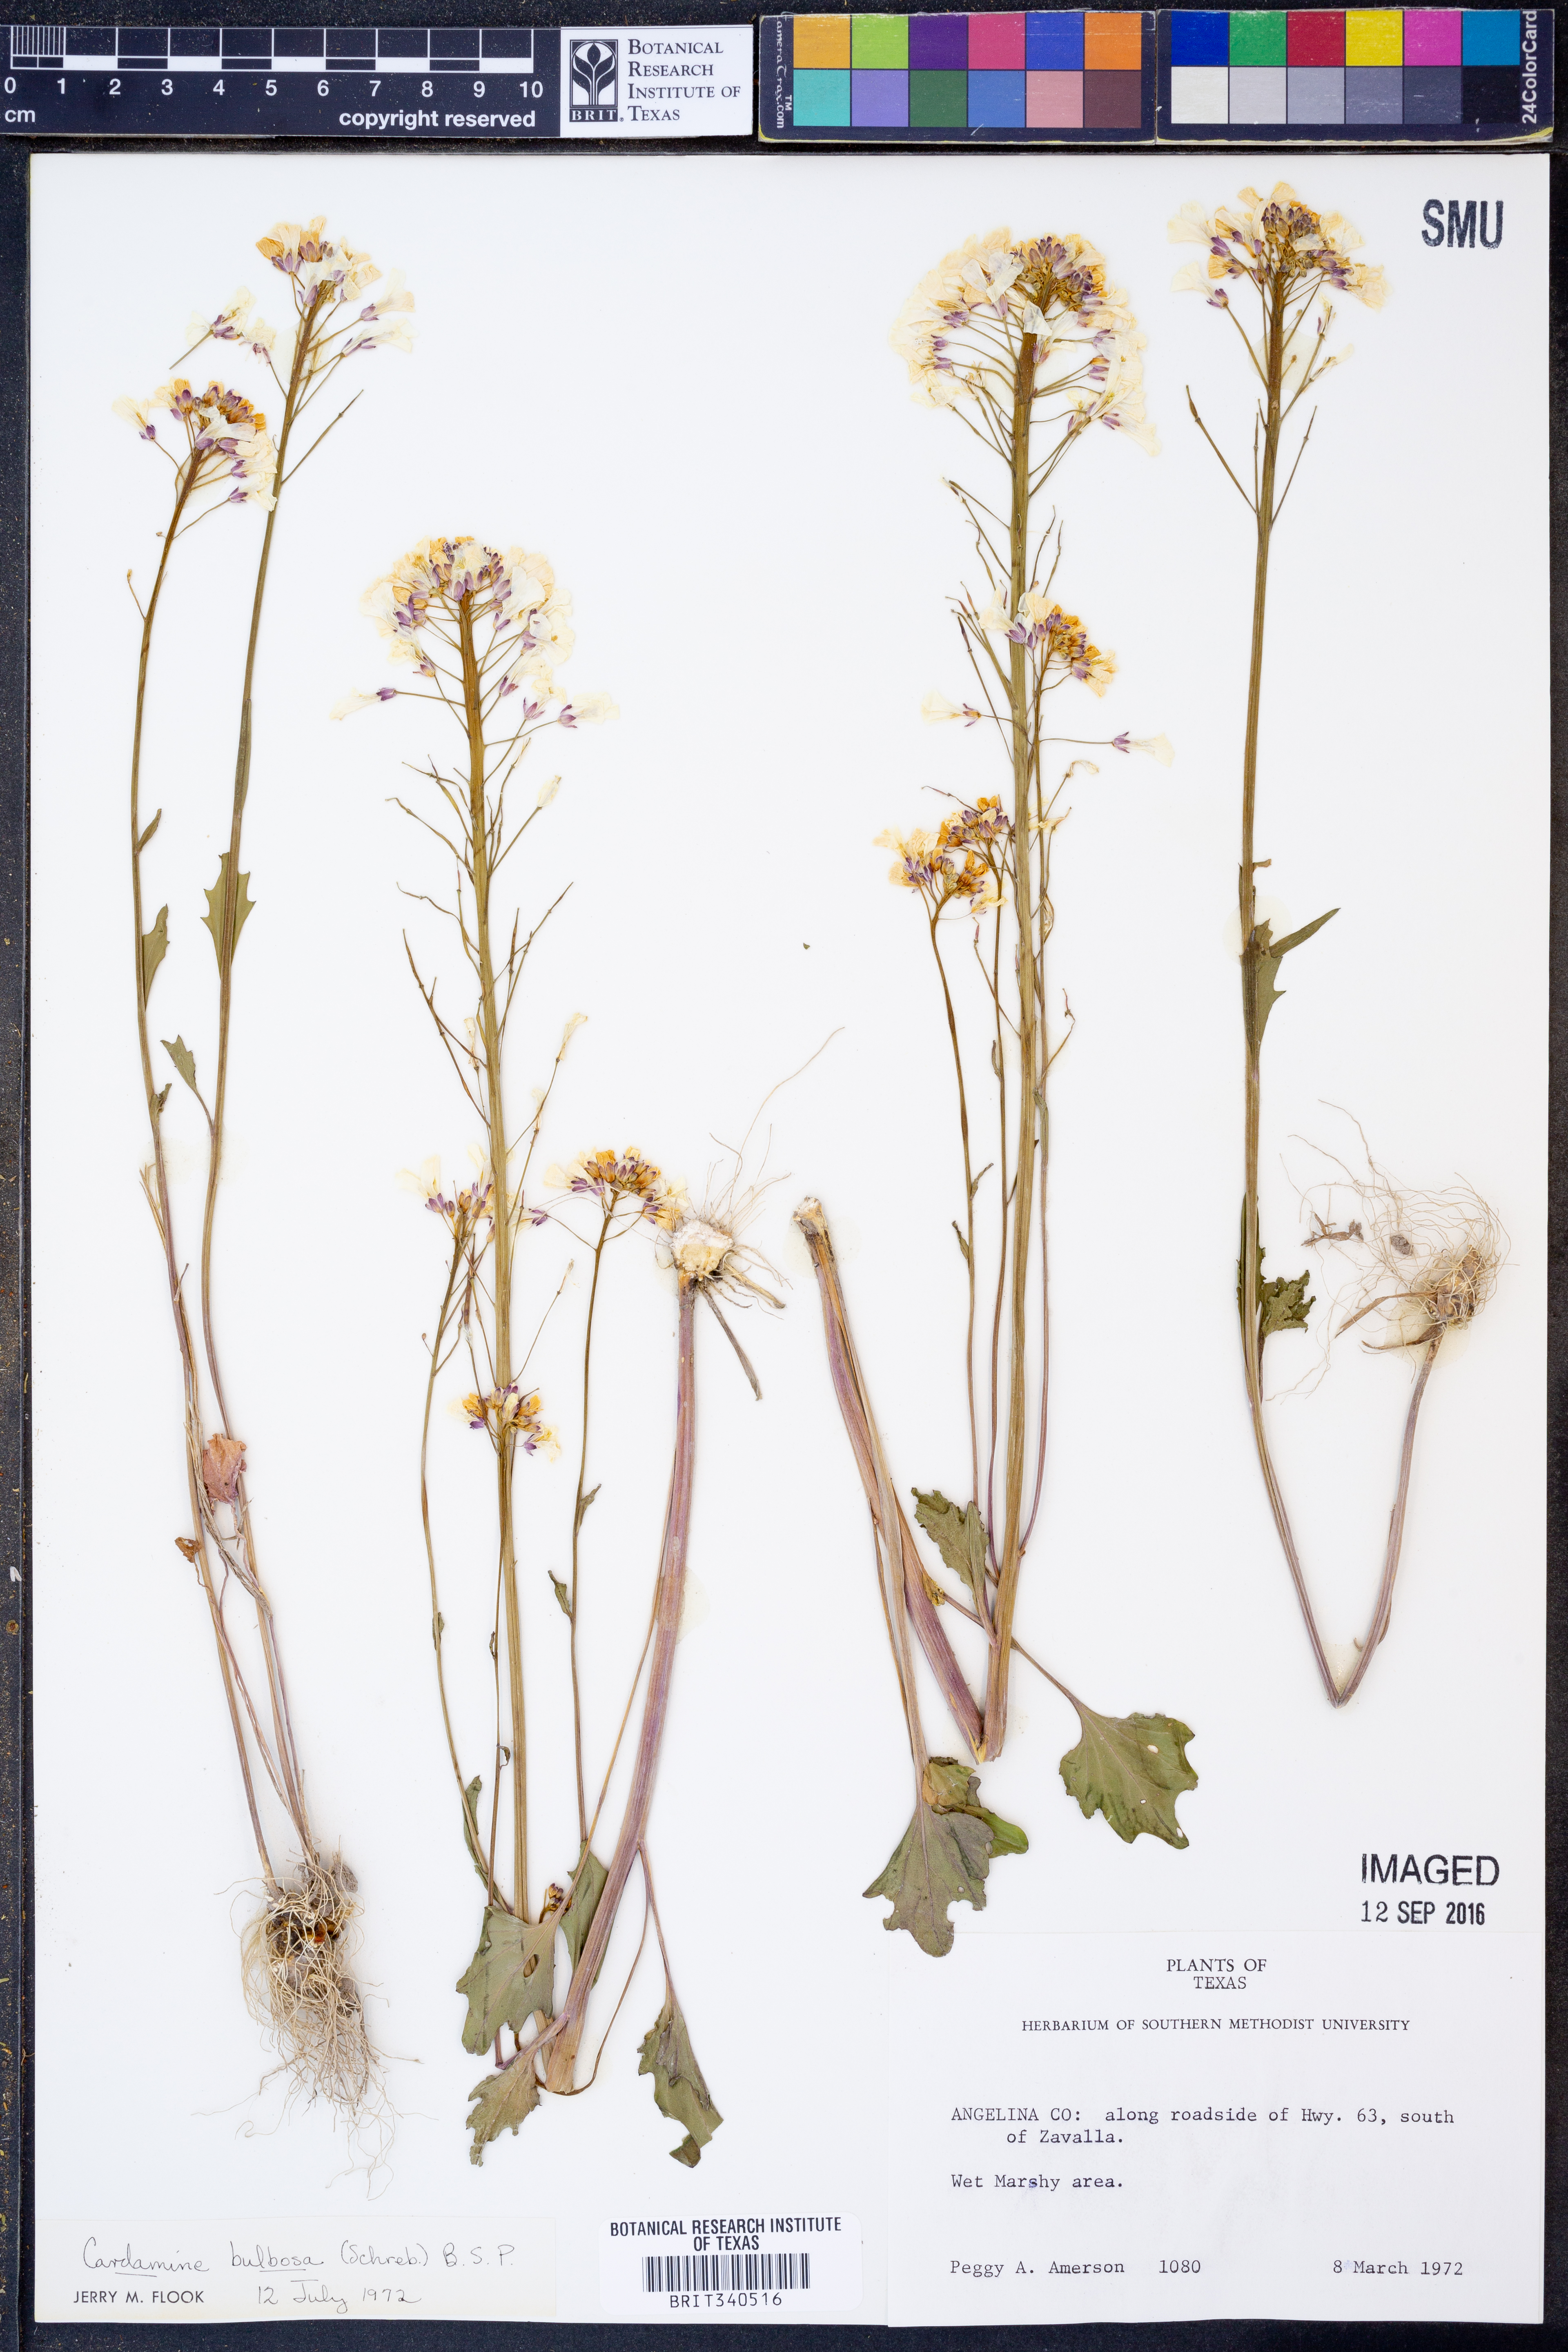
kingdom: Plantae
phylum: Tracheophyta
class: Magnoliopsida
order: Brassicales
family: Brassicaceae
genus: Cardamine
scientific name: Cardamine bulbosa
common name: Spring cress
